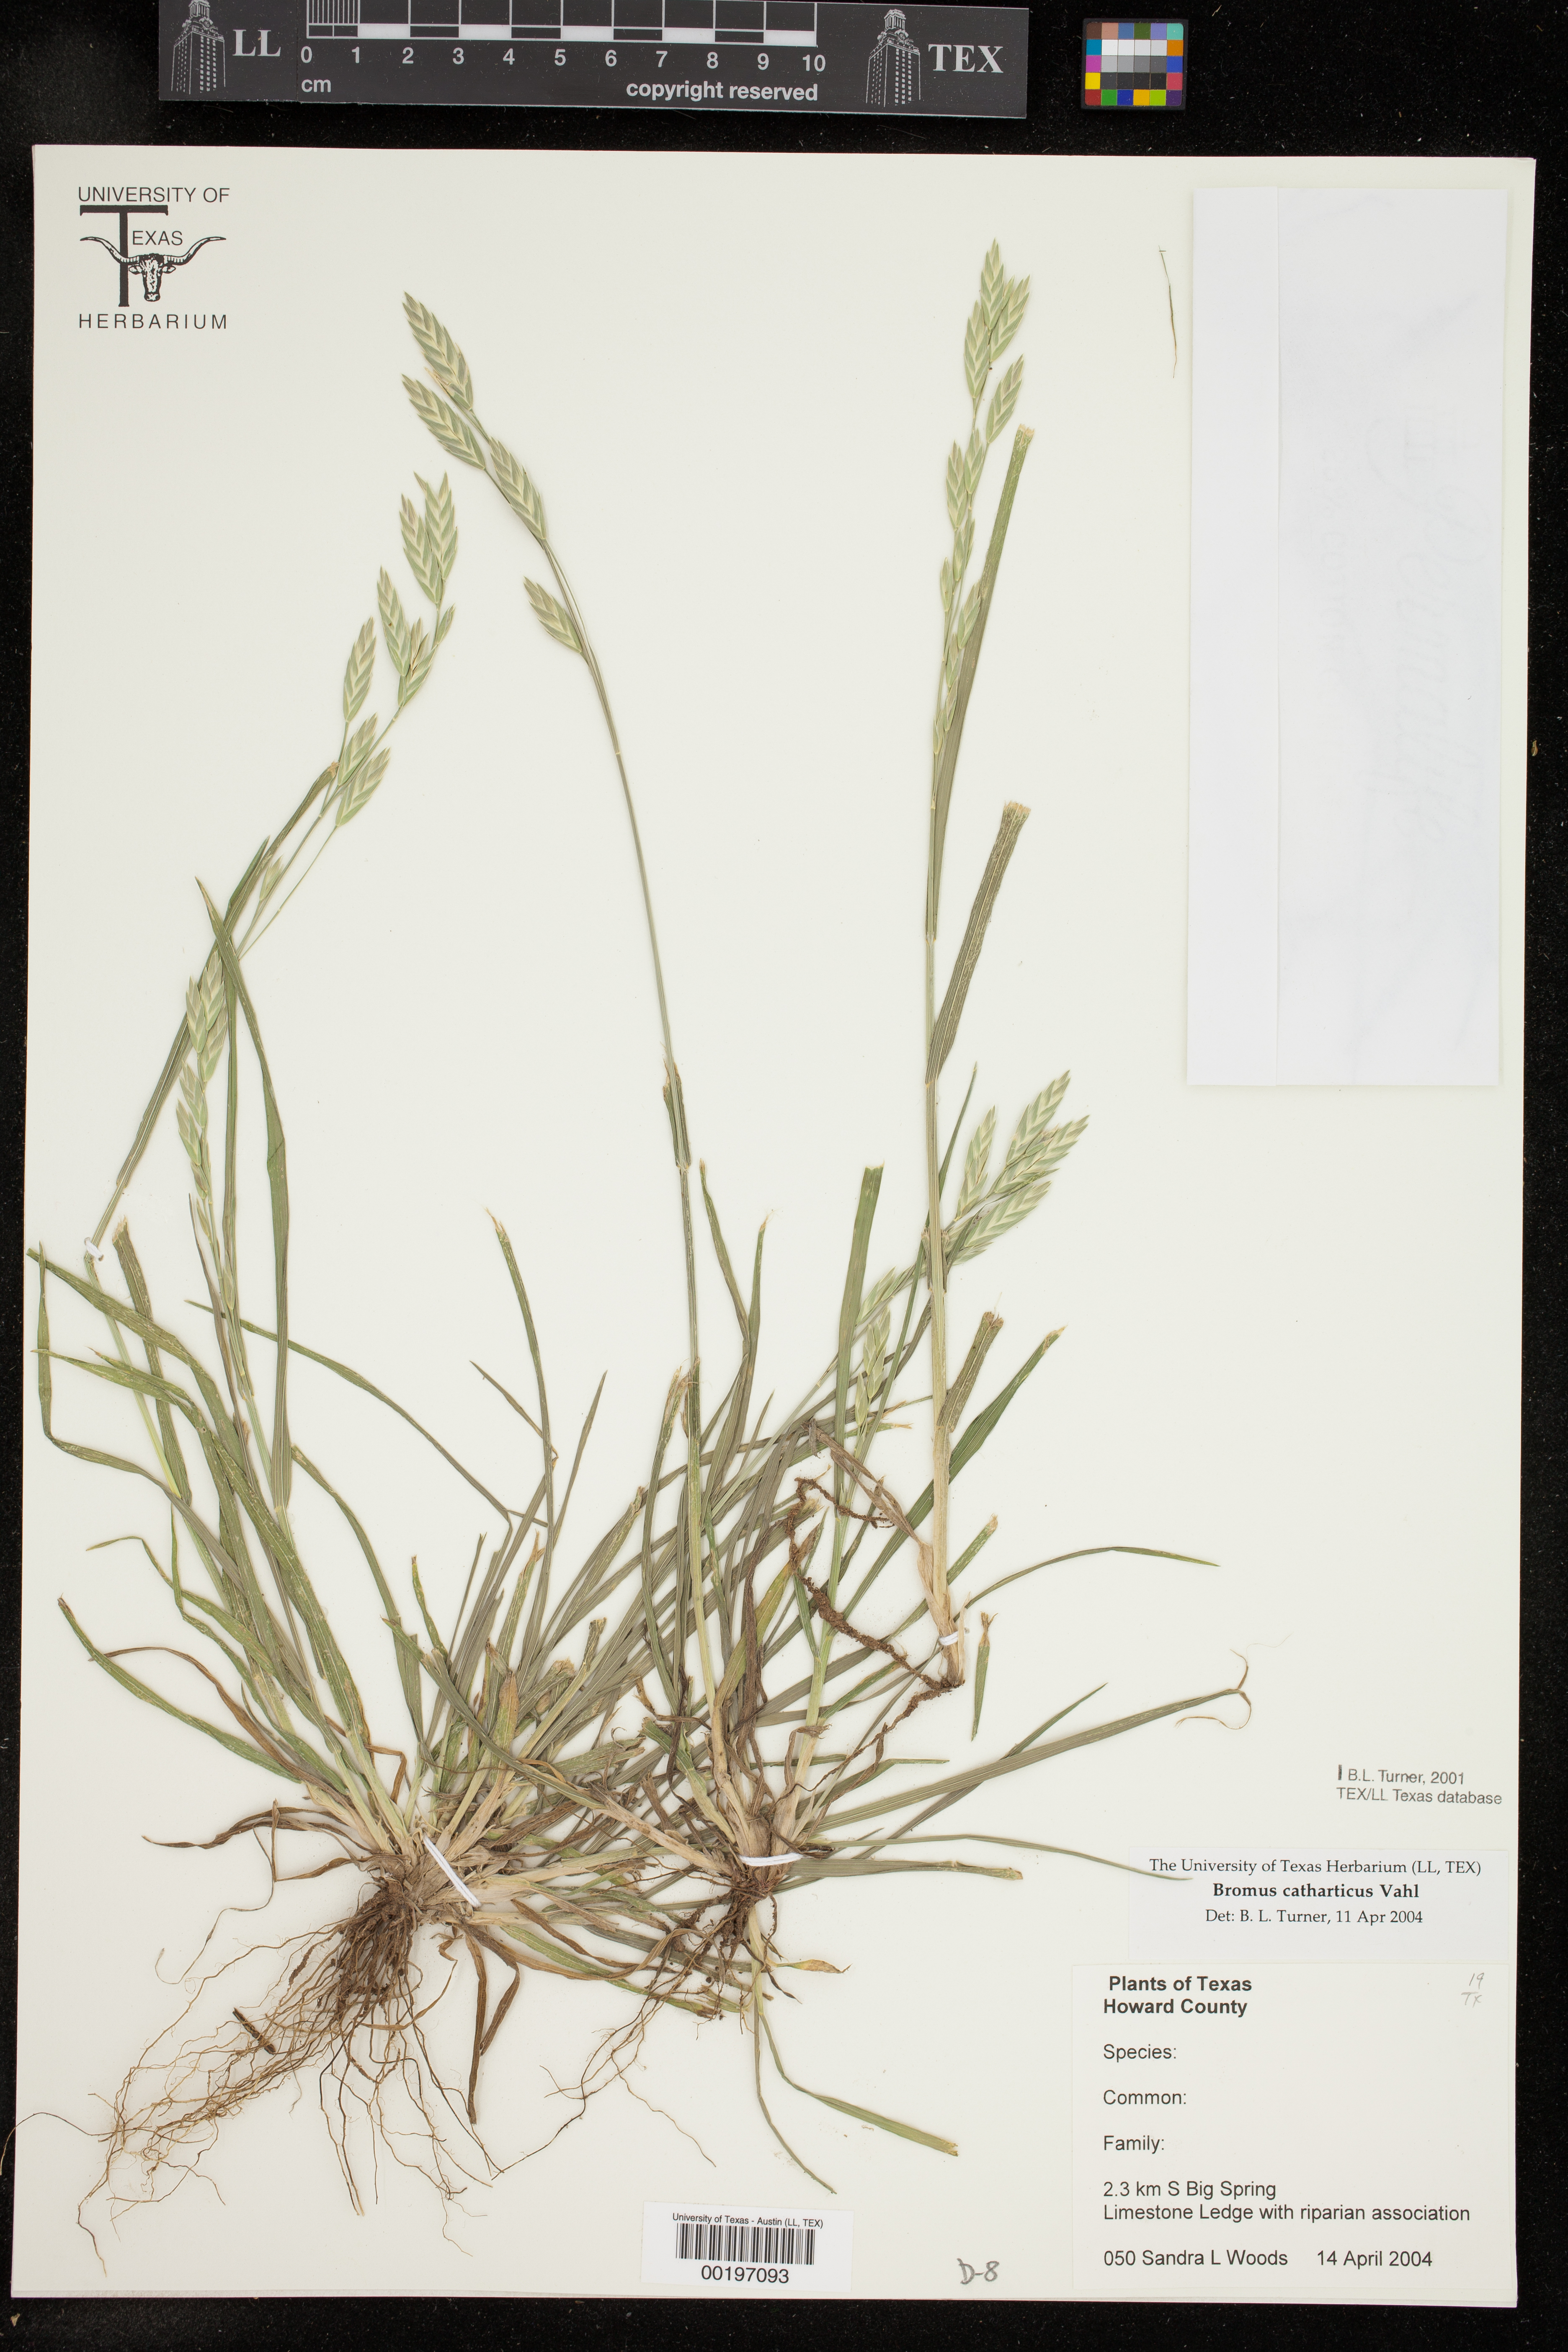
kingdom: Plantae
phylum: Tracheophyta
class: Liliopsida
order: Poales
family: Poaceae
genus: Bromus
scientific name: Bromus catharticus
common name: Rescuegrass
